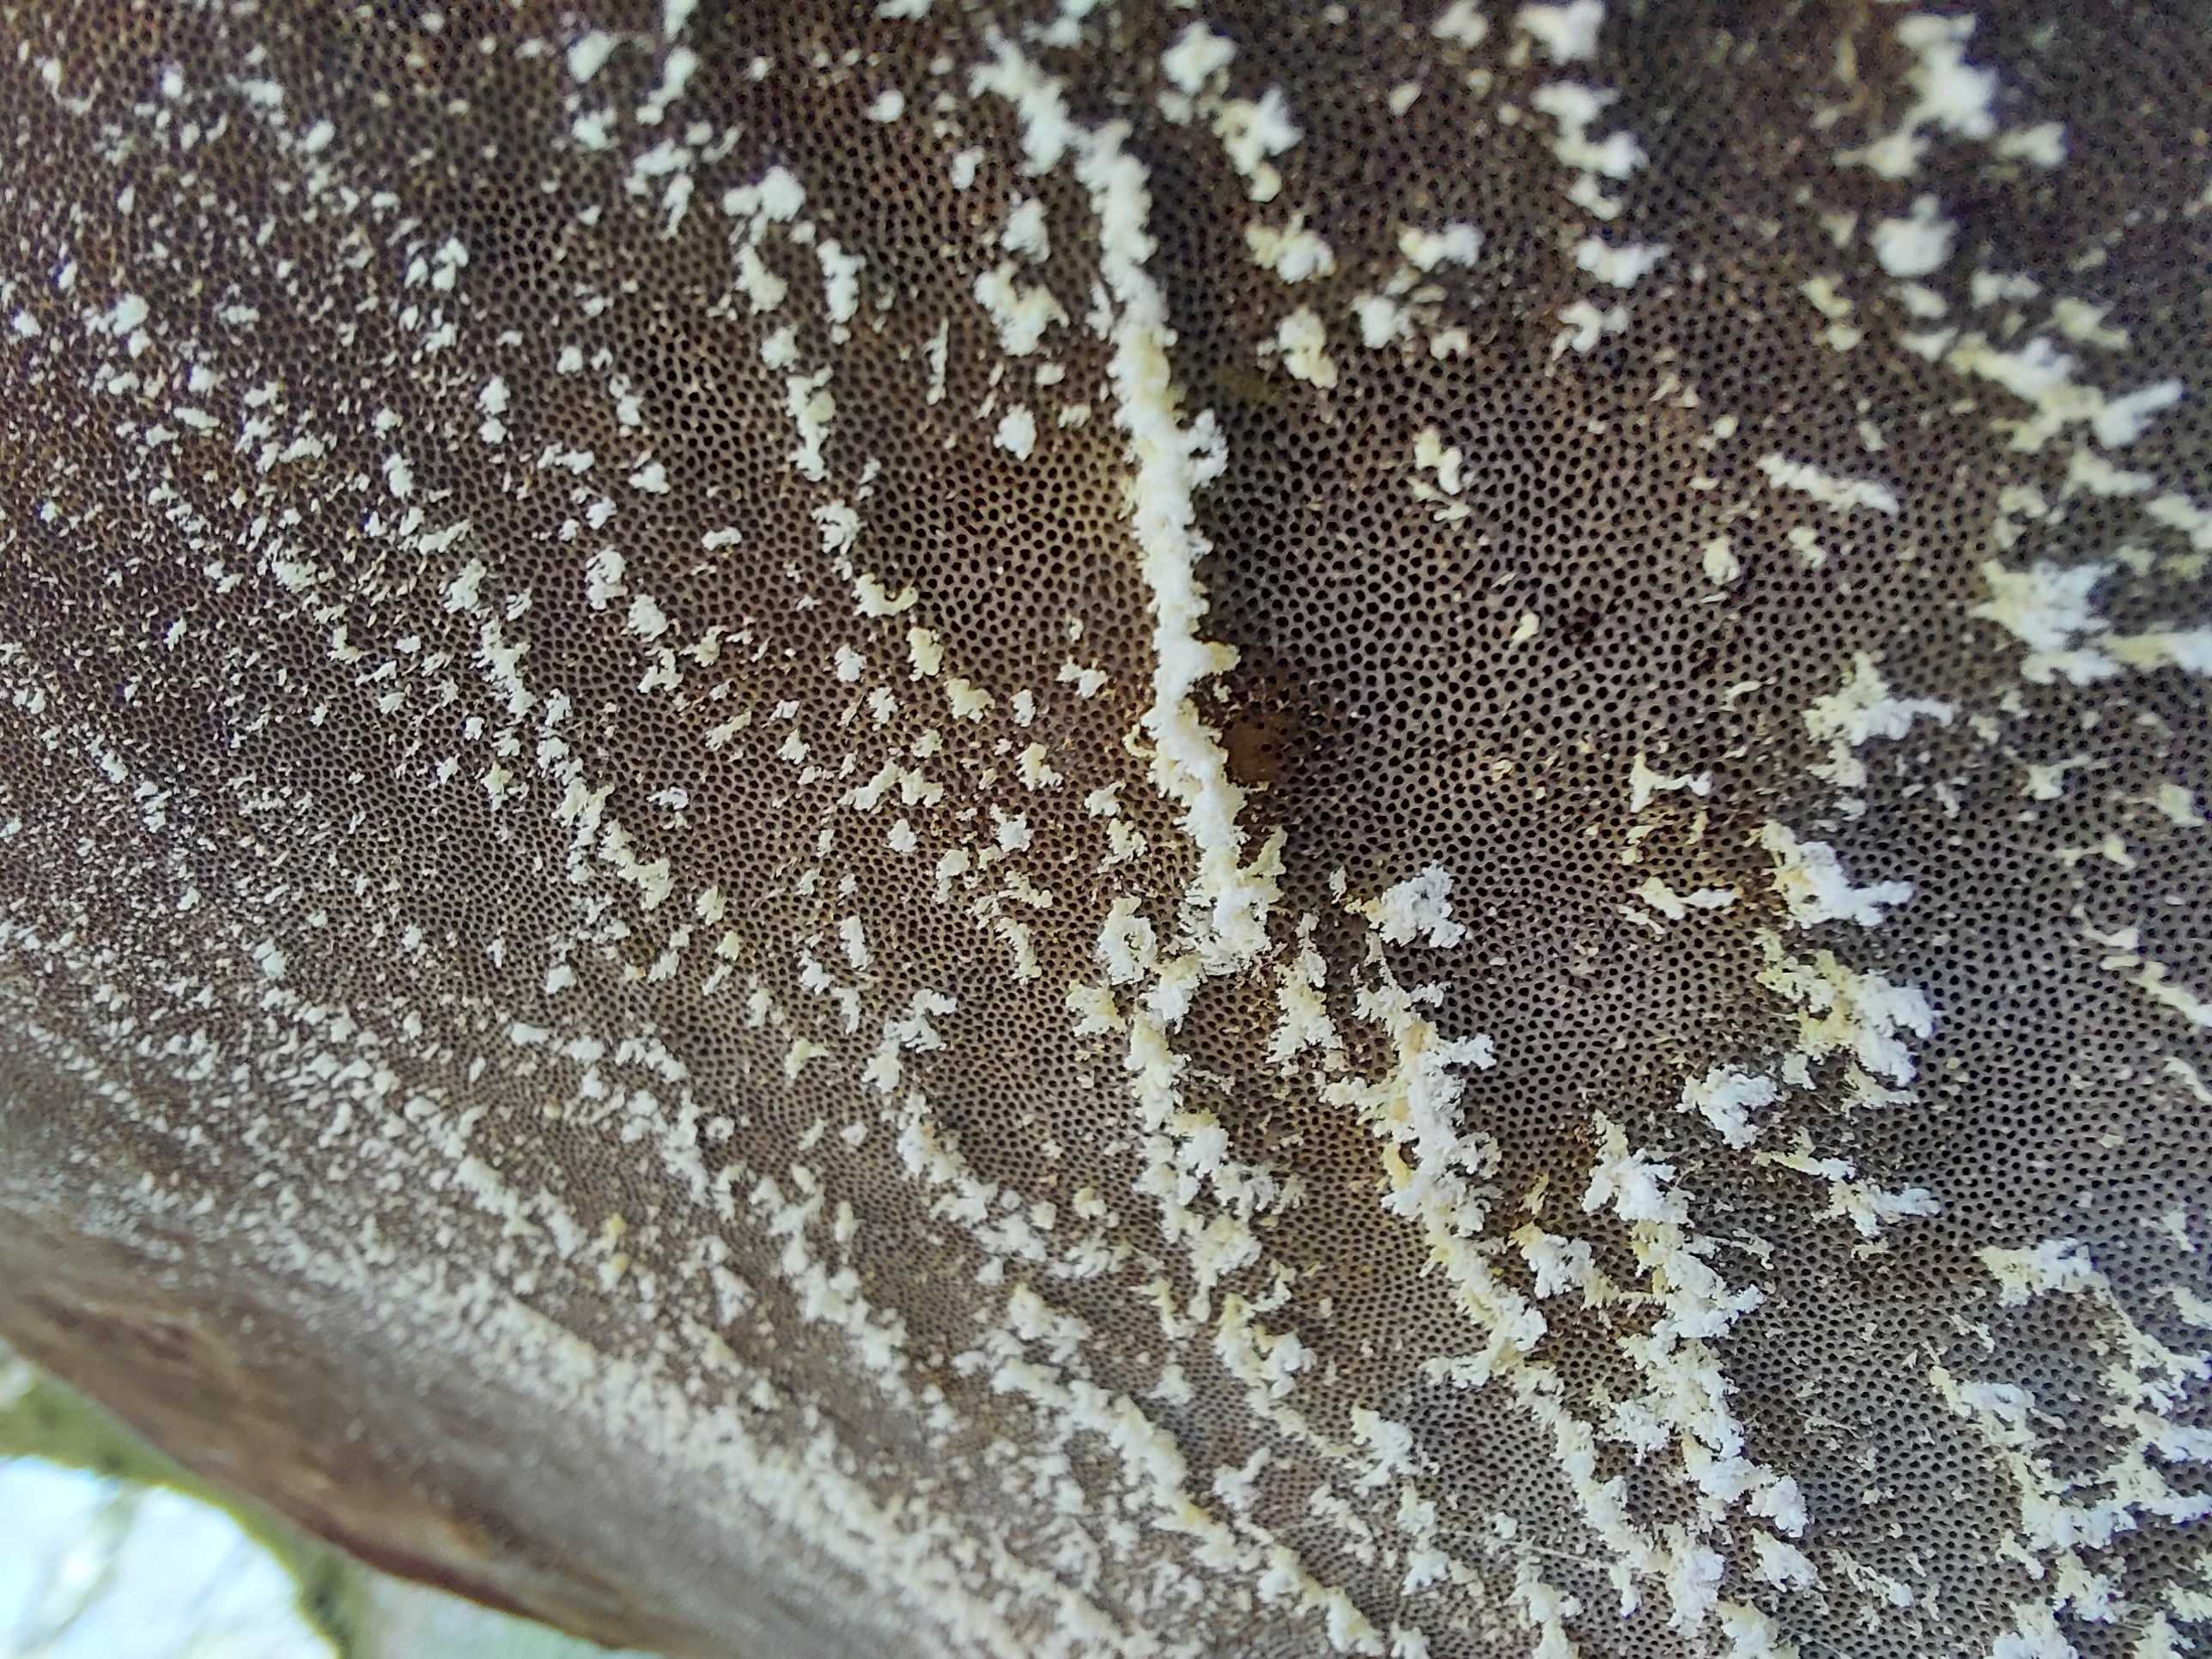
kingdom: Fungi
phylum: Basidiomycota
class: Agaricomycetes
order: Polyporales
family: Polyporaceae
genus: Fomes
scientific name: Fomes fomentarius
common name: tøndersvamp
